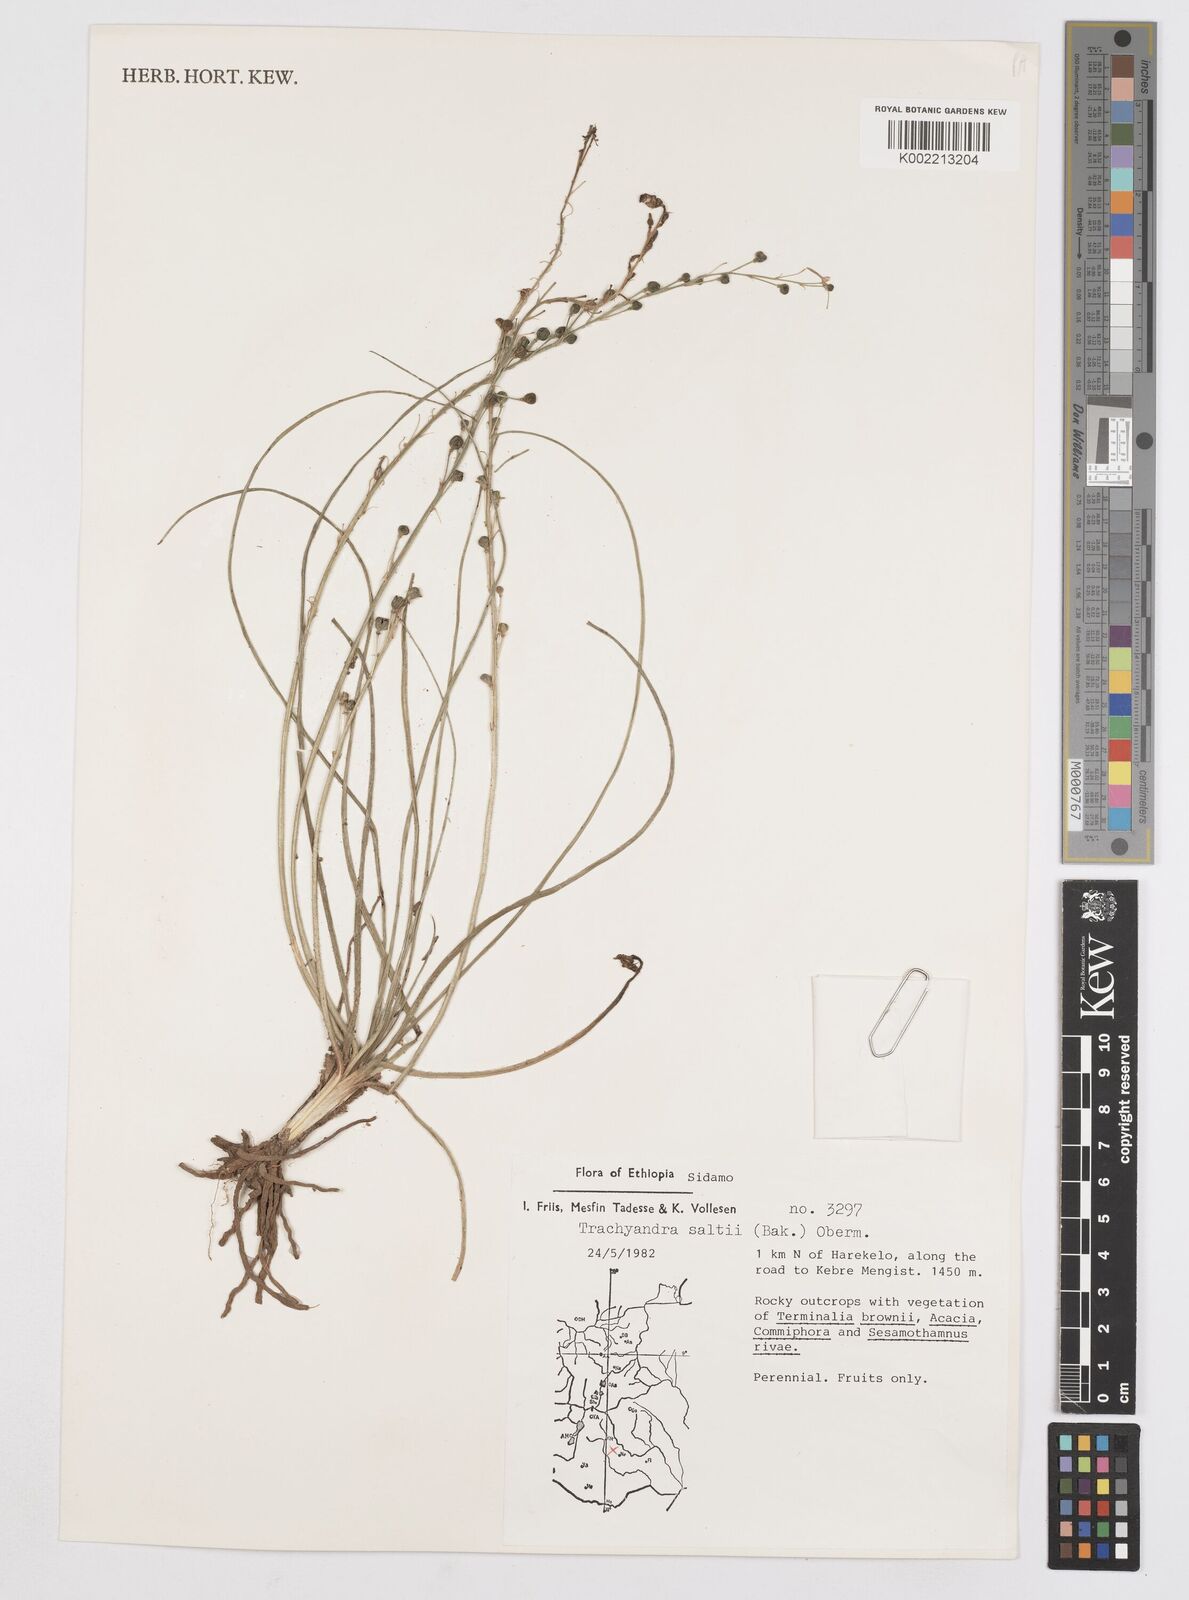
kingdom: Plantae
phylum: Tracheophyta
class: Liliopsida
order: Asparagales
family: Asphodelaceae
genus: Trachyandra
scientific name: Trachyandra saltii
